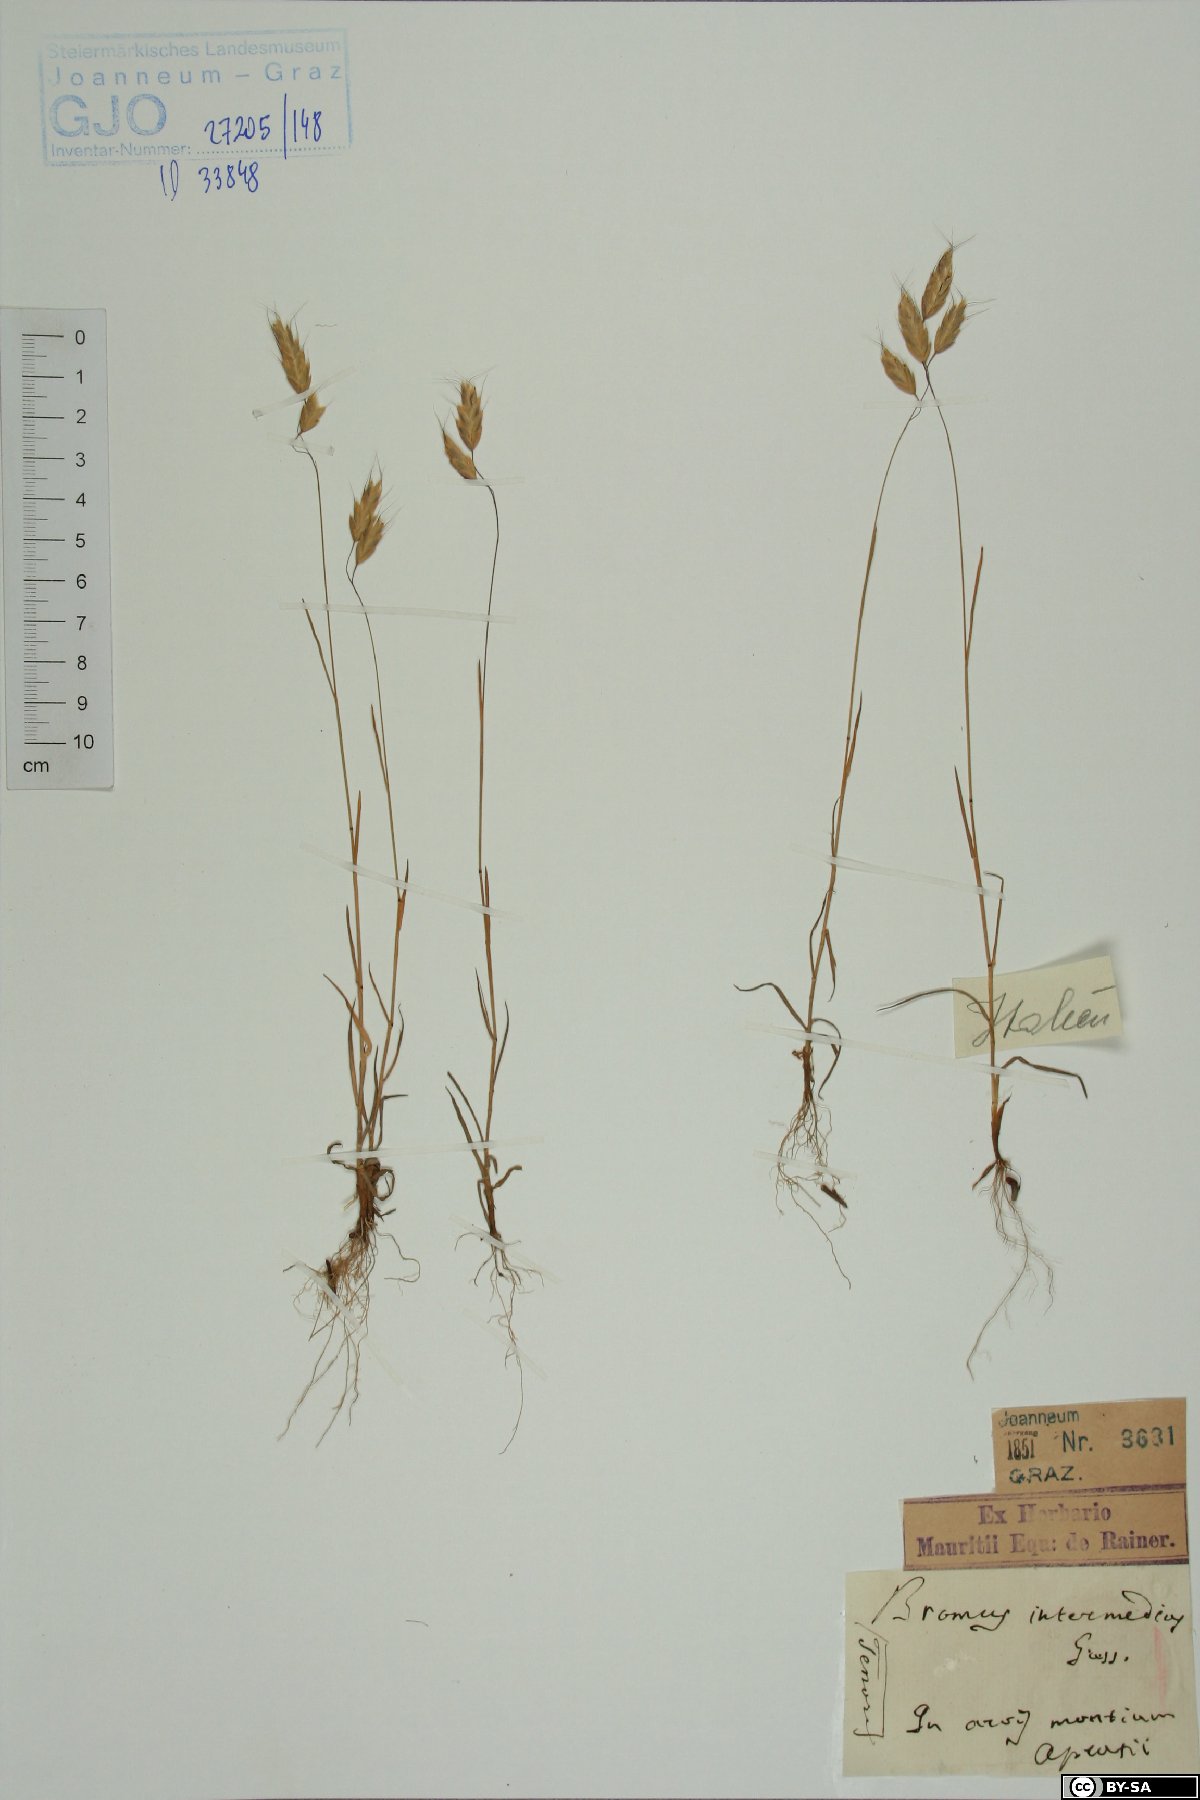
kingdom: Plantae
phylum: Tracheophyta
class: Liliopsida
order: Poales
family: Poaceae
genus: Bromus
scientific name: Bromus intermedius
